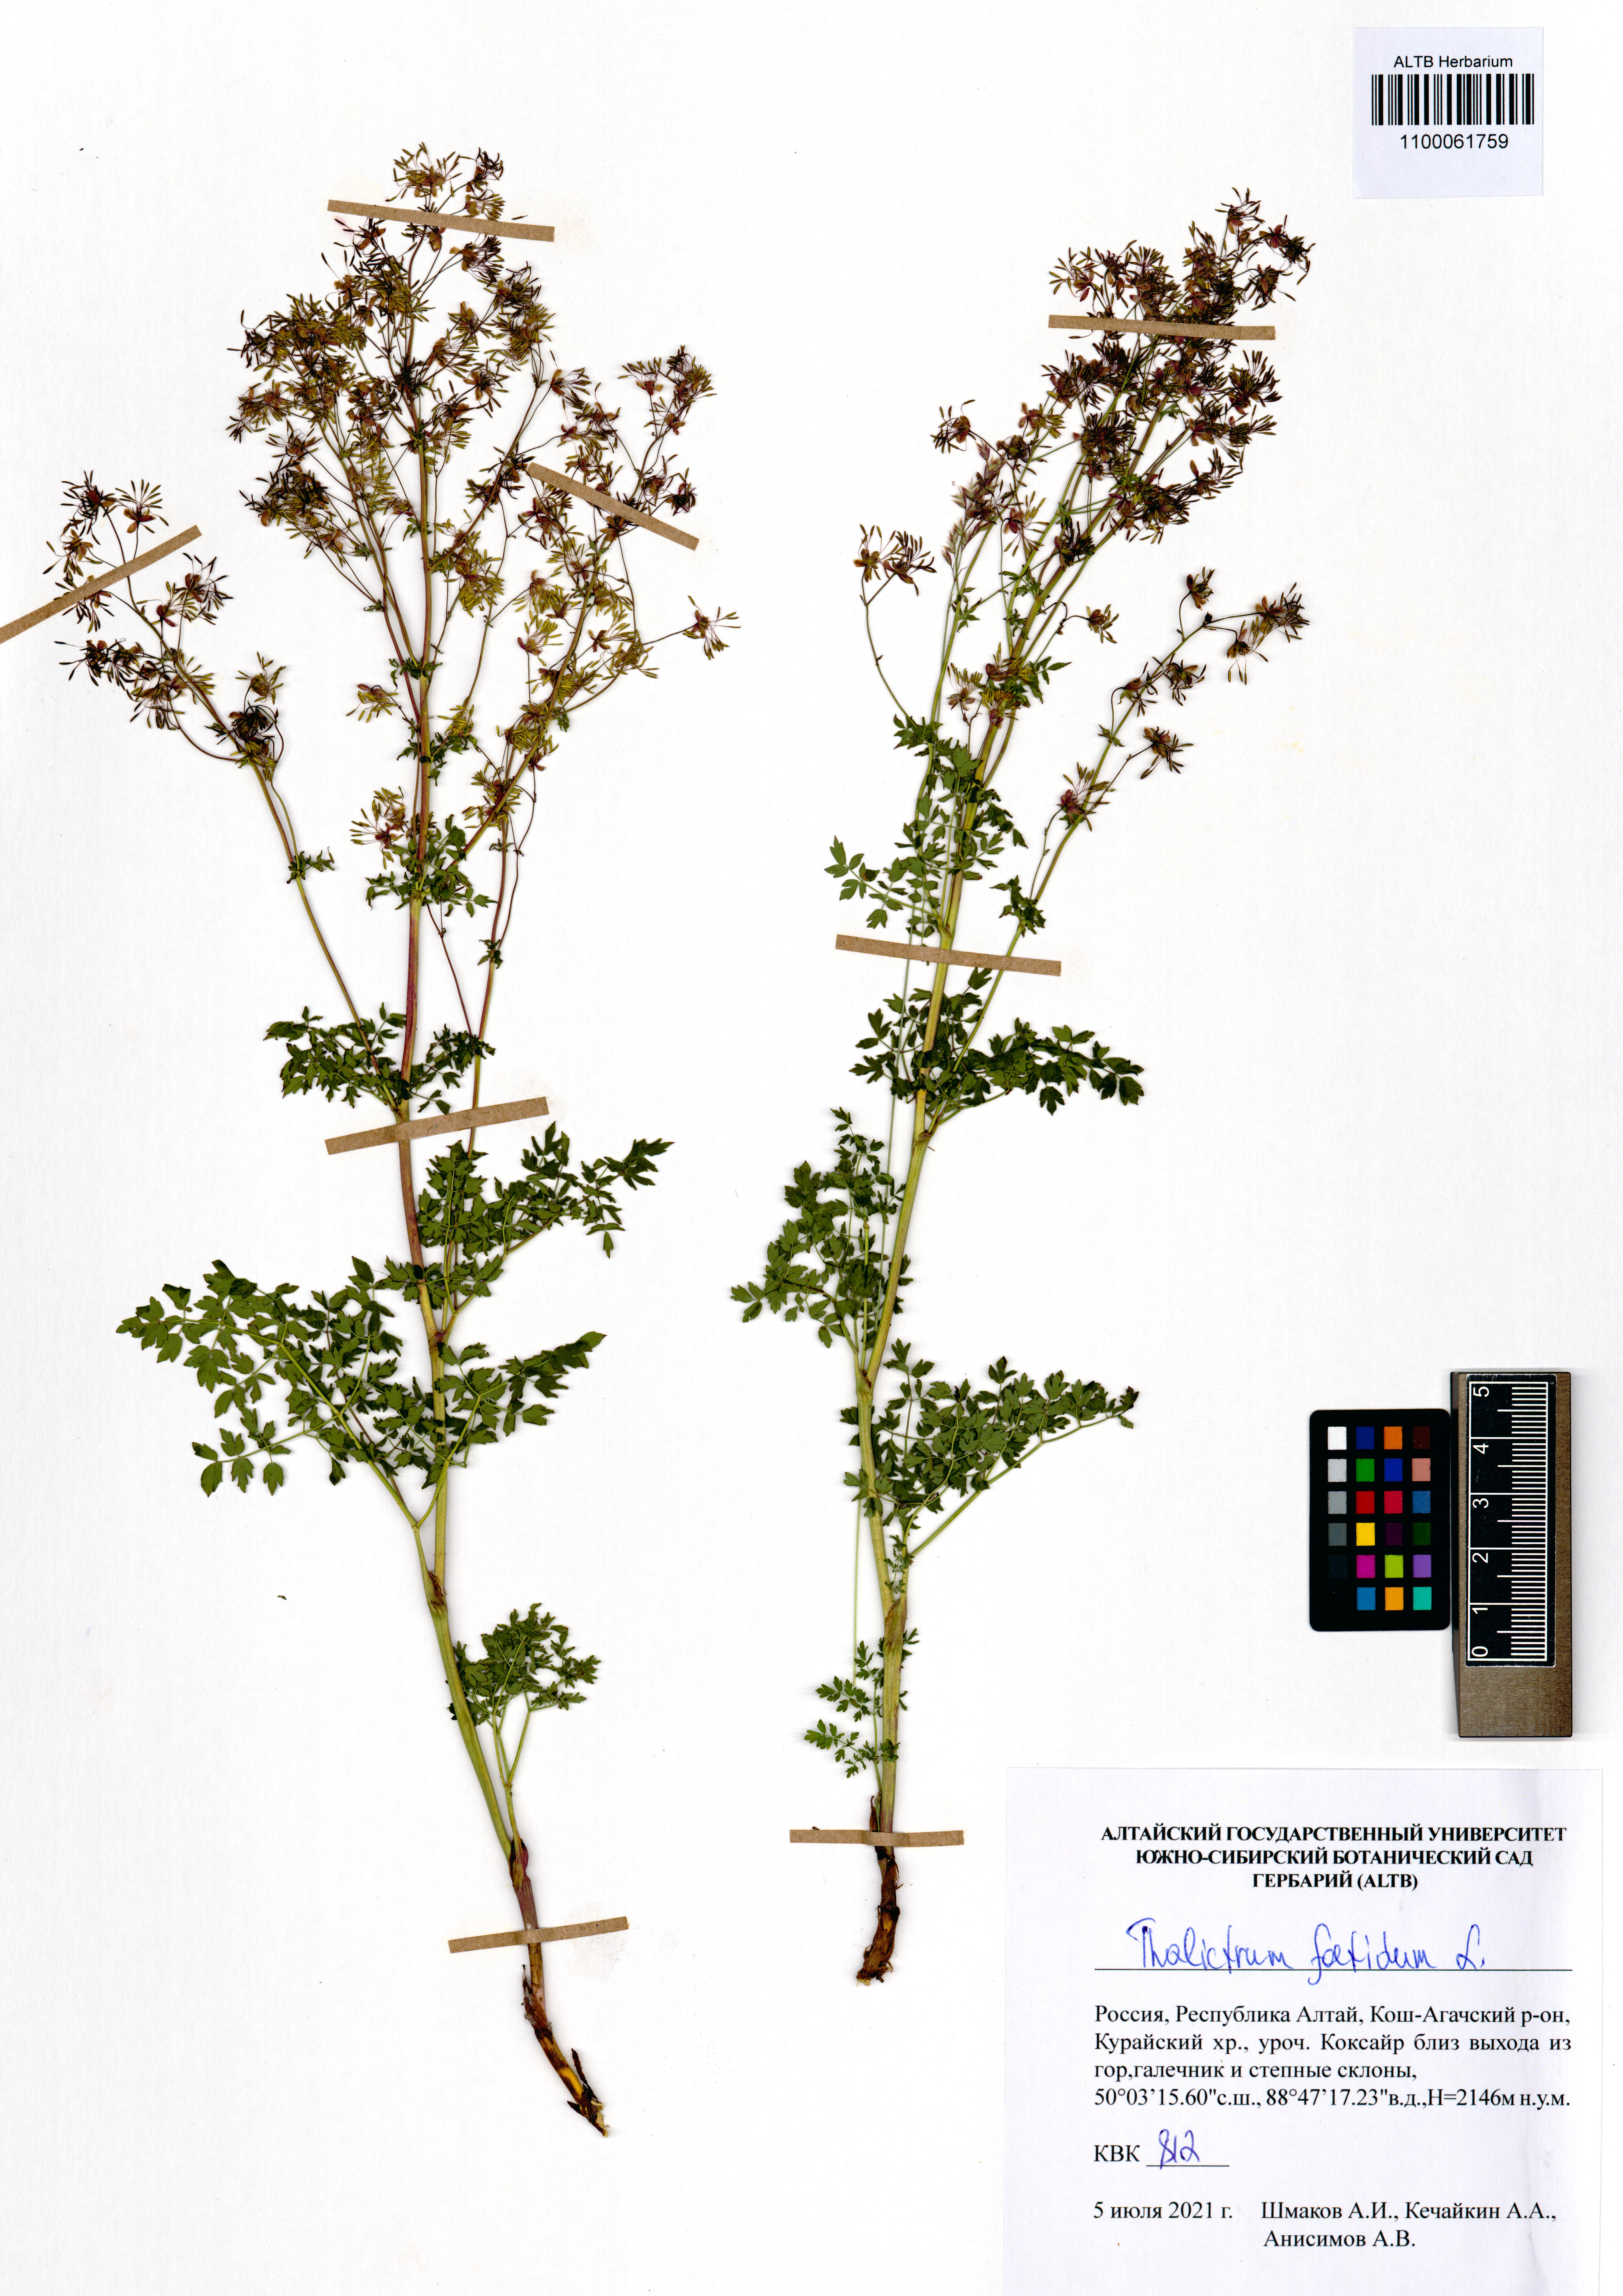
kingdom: Plantae
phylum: Tracheophyta
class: Magnoliopsida
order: Ranunculales
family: Ranunculaceae
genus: Thalictrum
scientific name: Thalictrum foetidum
